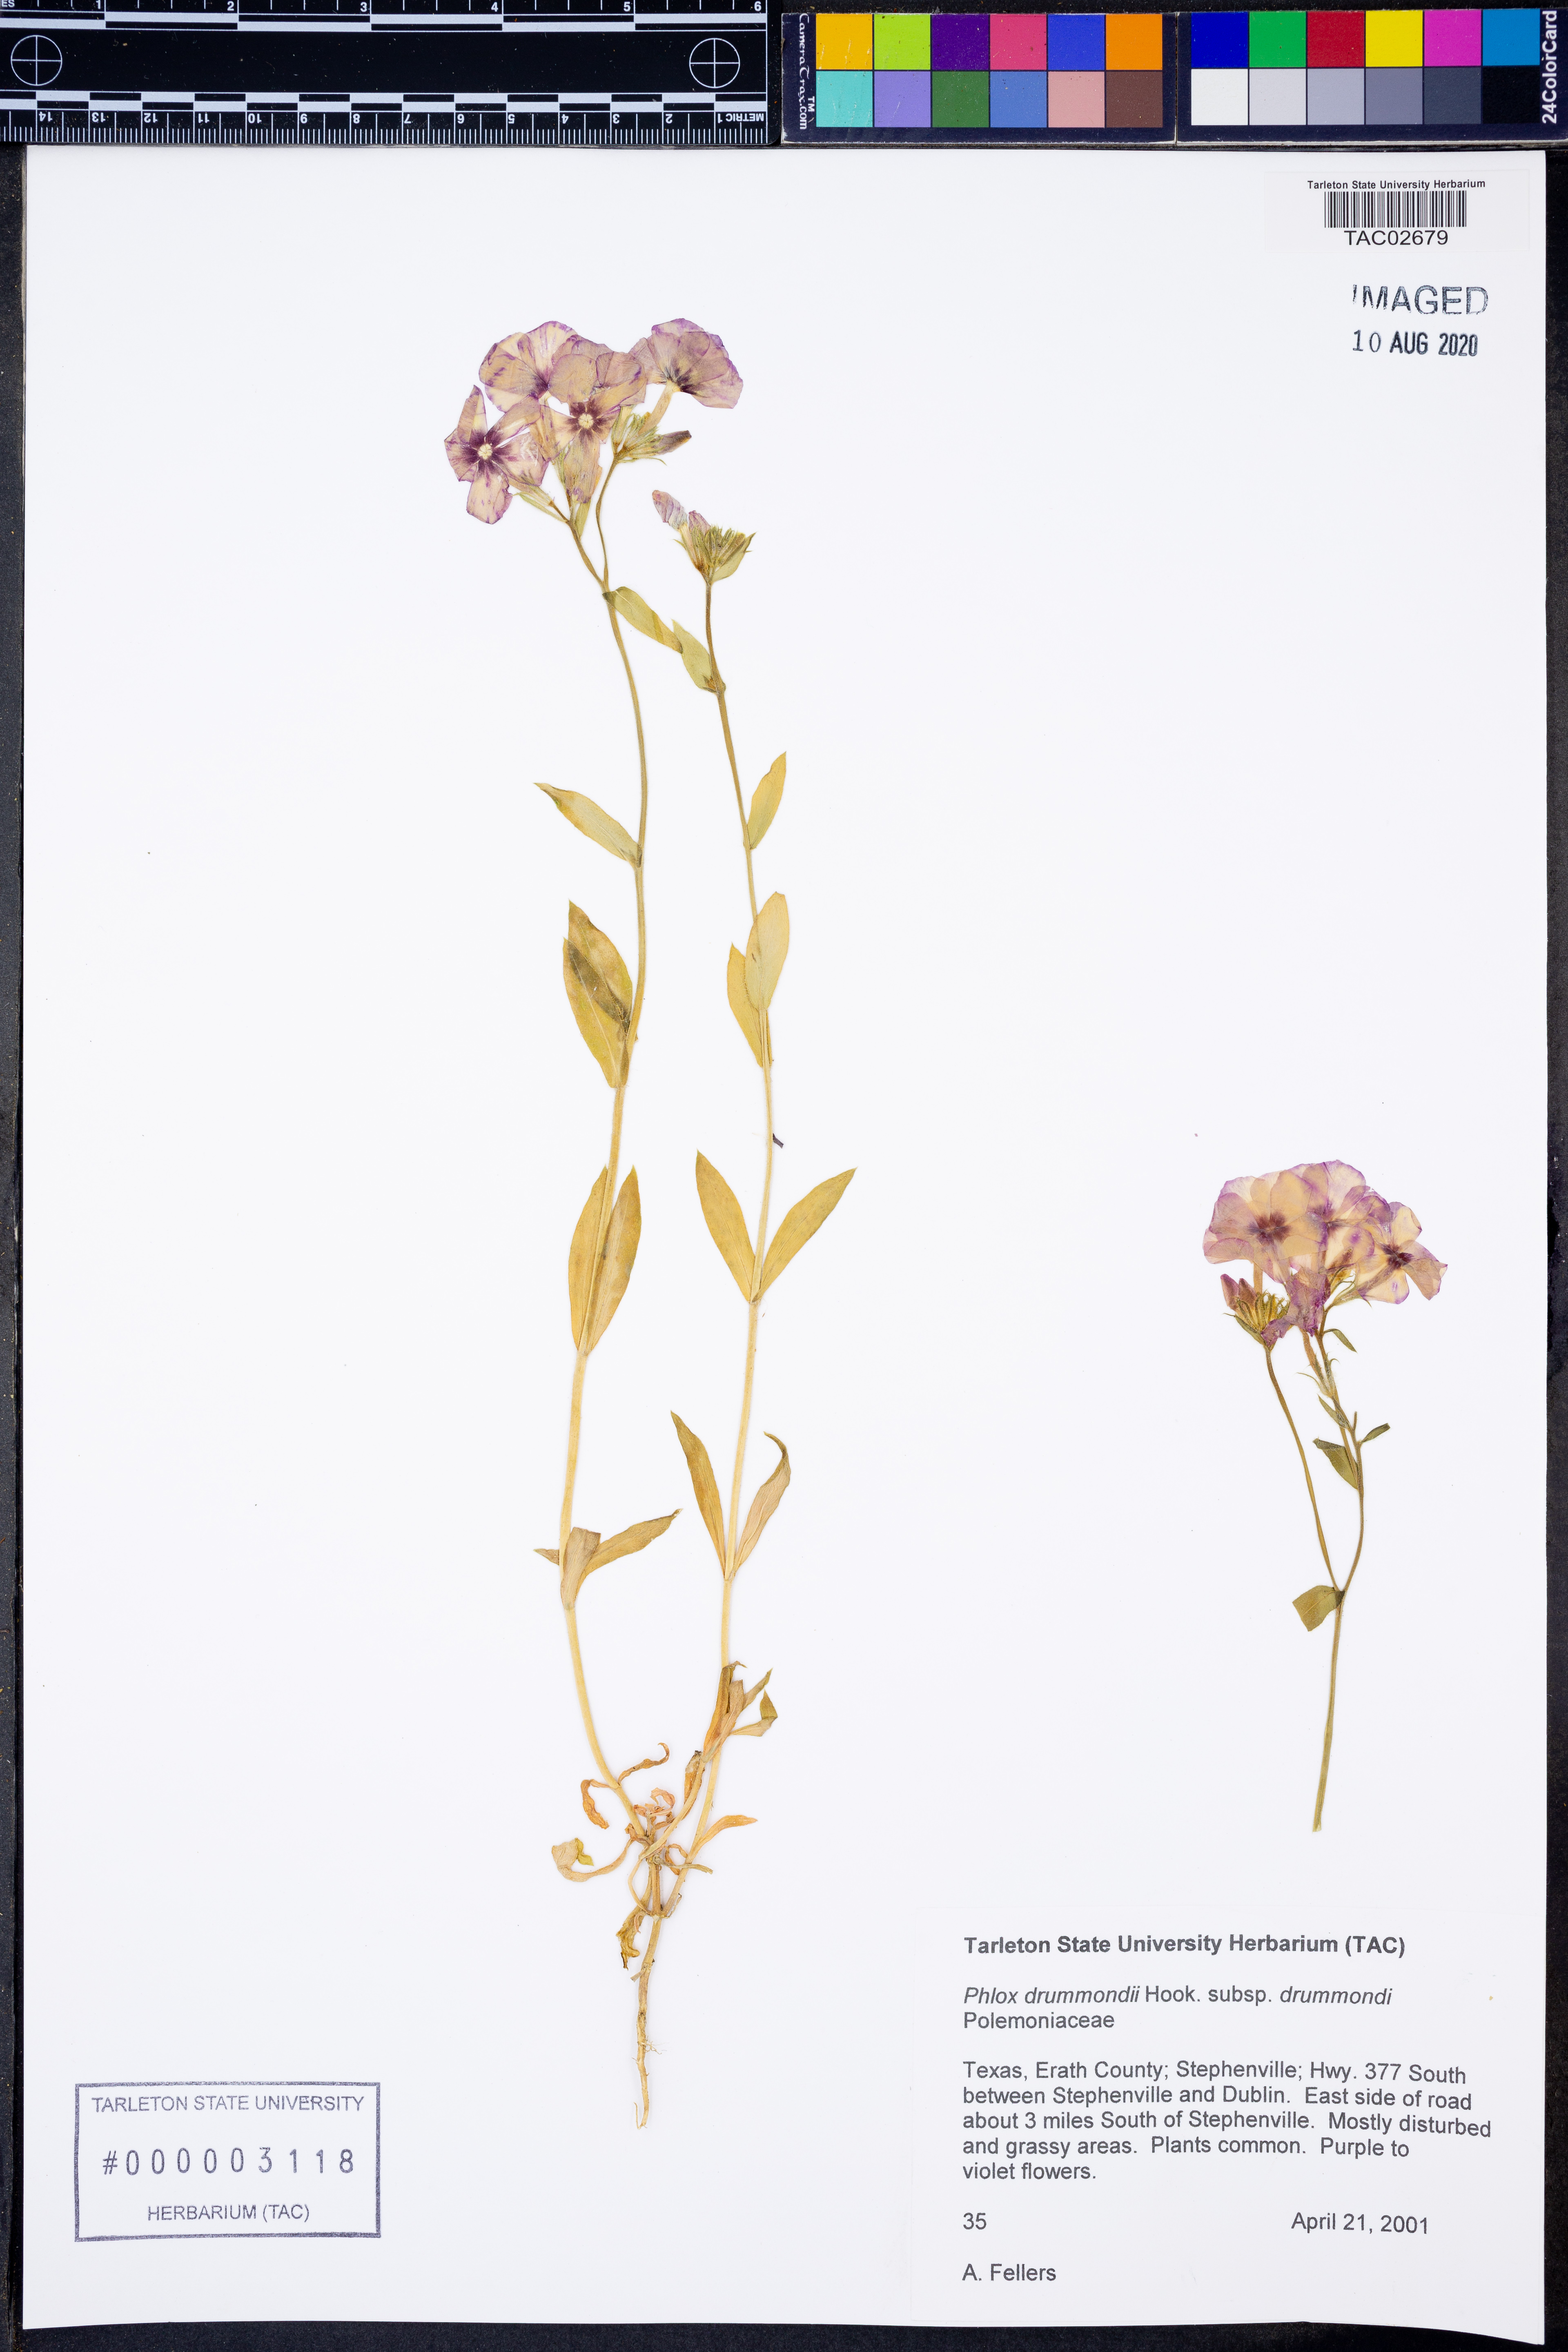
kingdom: Plantae
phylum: Tracheophyta
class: Magnoliopsida
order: Ericales
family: Polemoniaceae
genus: Phlox
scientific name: Phlox drummondii
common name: Drummond's phlox
